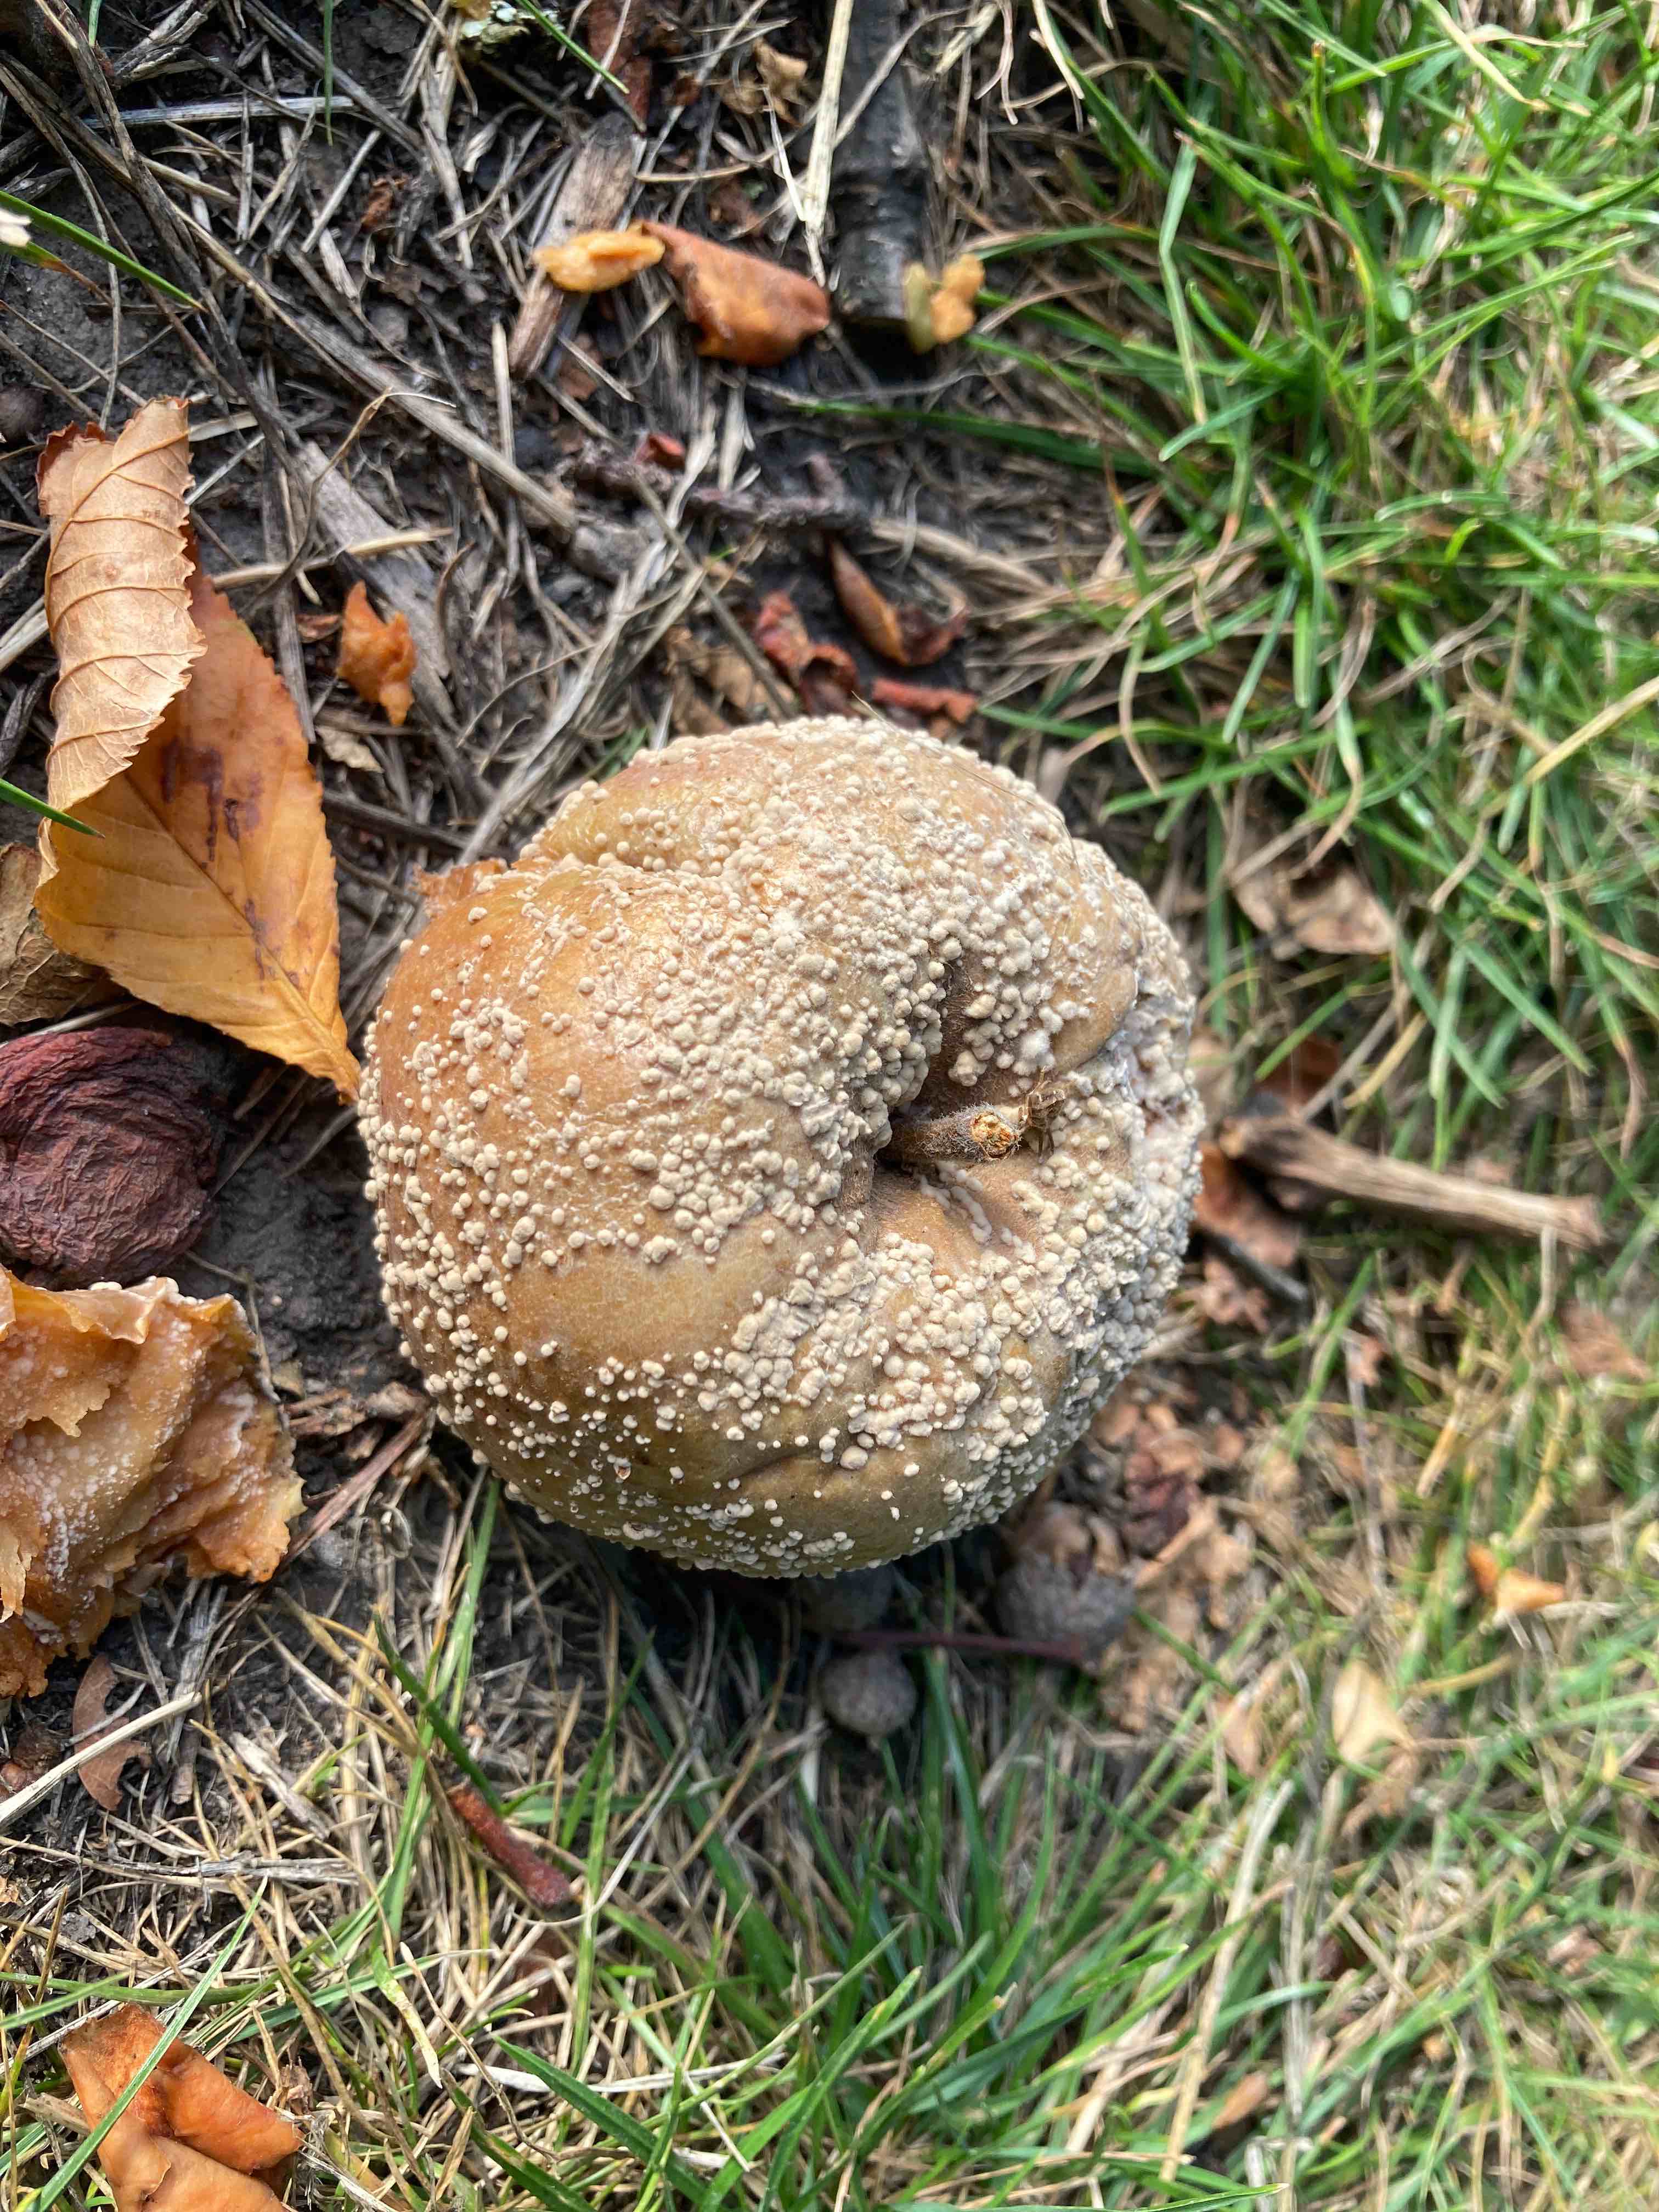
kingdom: Fungi
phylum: Ascomycota
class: Leotiomycetes
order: Helotiales
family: Sclerotiniaceae
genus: Monilinia
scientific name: Monilinia fructigena
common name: æble-knoldskive
